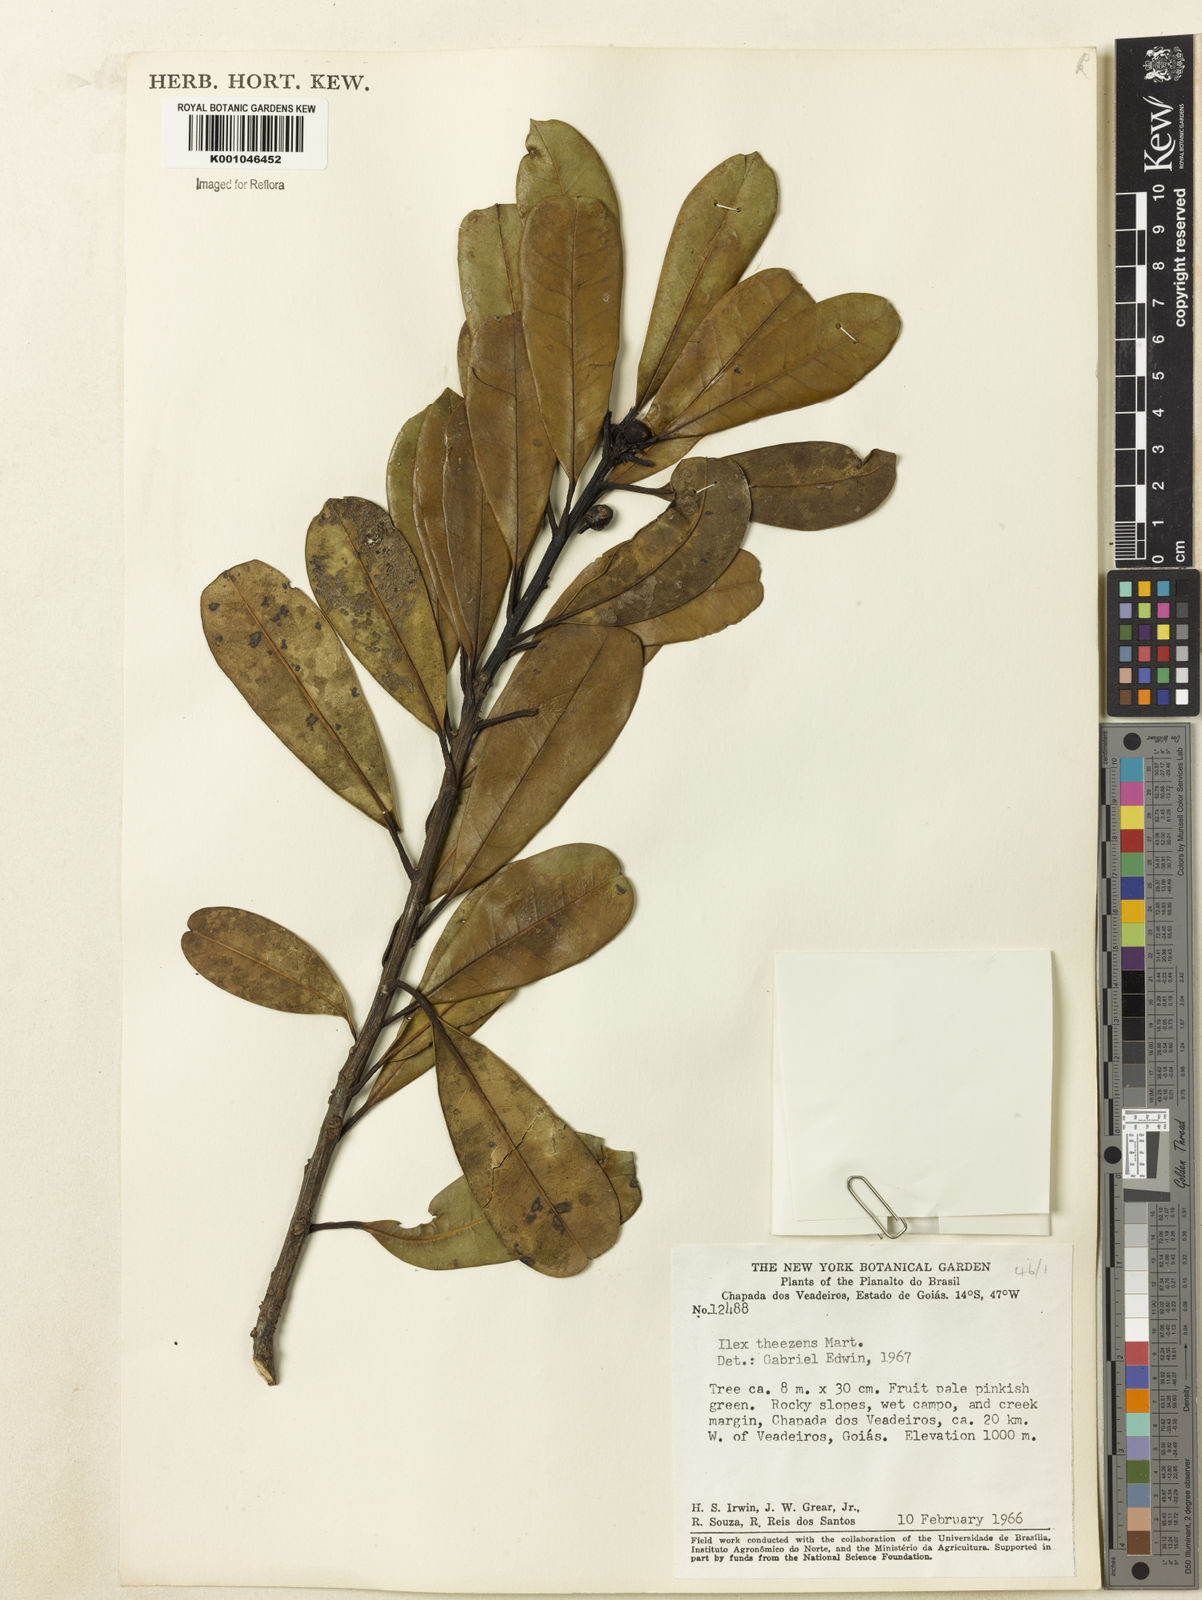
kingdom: Plantae
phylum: Tracheophyta
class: Magnoliopsida
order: Aquifoliales
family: Aquifoliaceae
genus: Ilex
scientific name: Ilex paraguariensis
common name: Paraguay tea
